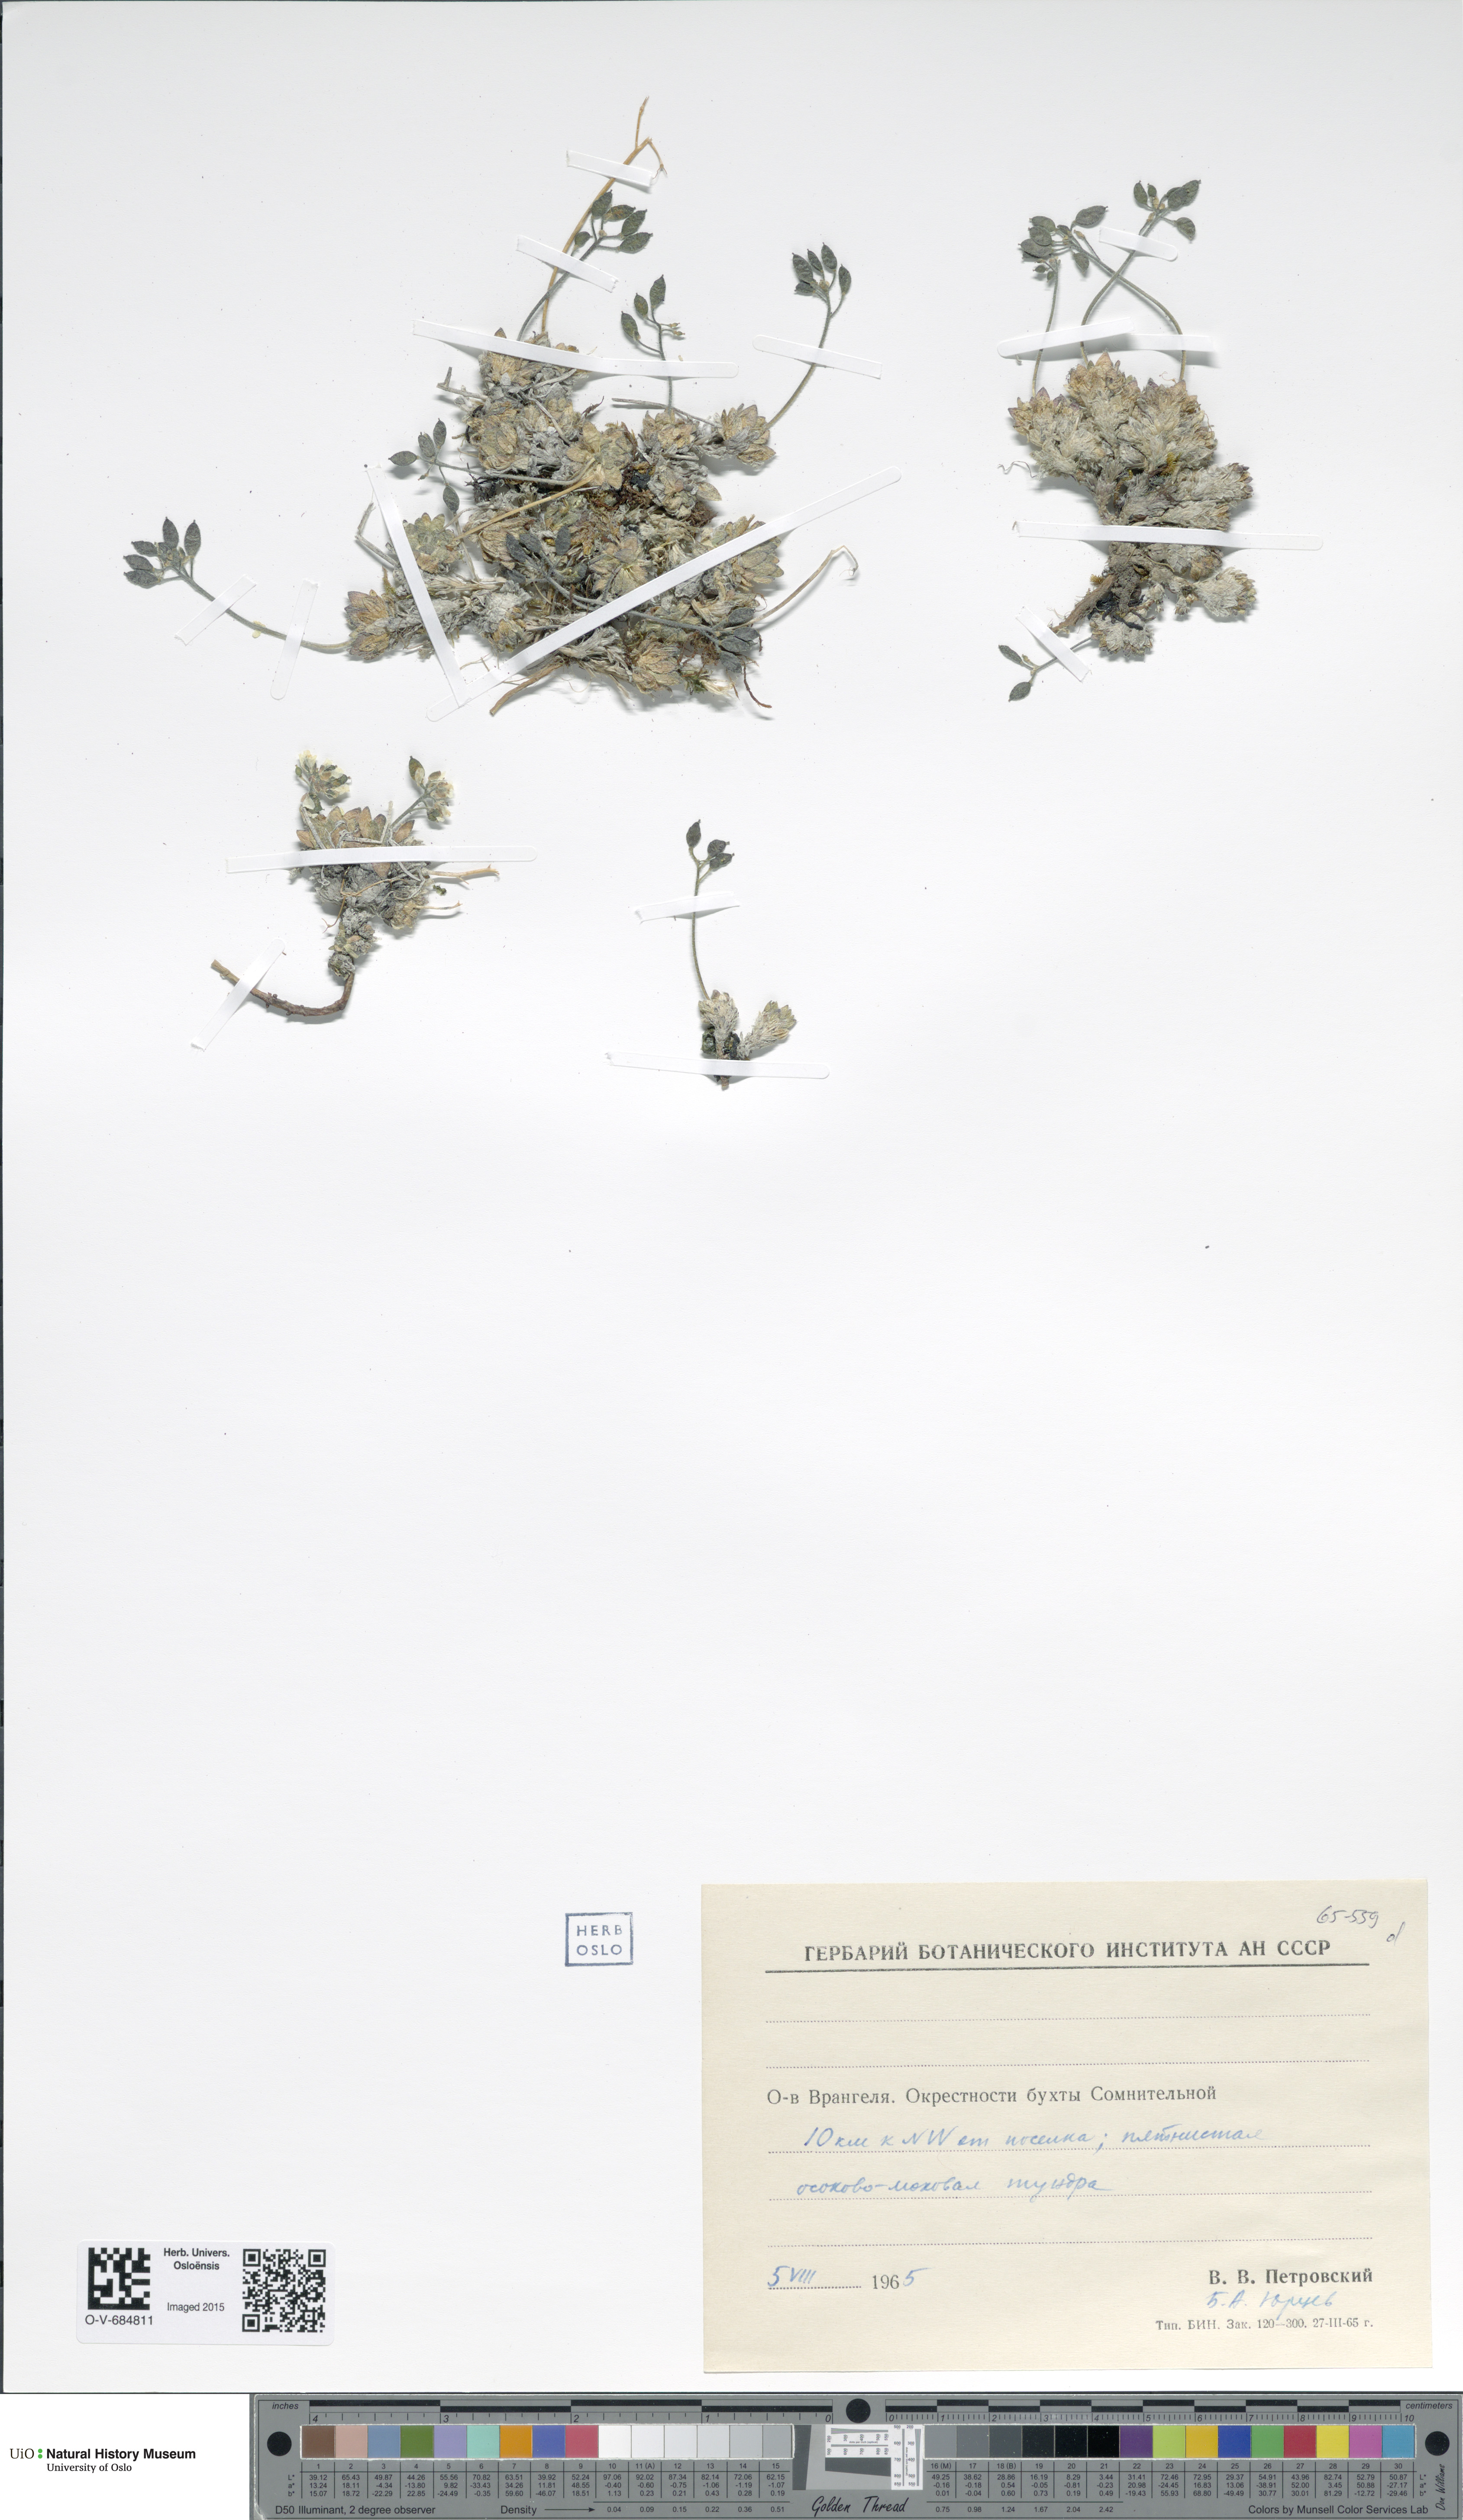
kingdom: Plantae
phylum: Tracheophyta
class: Magnoliopsida
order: Brassicales
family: Brassicaceae
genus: Draba
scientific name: Draba
